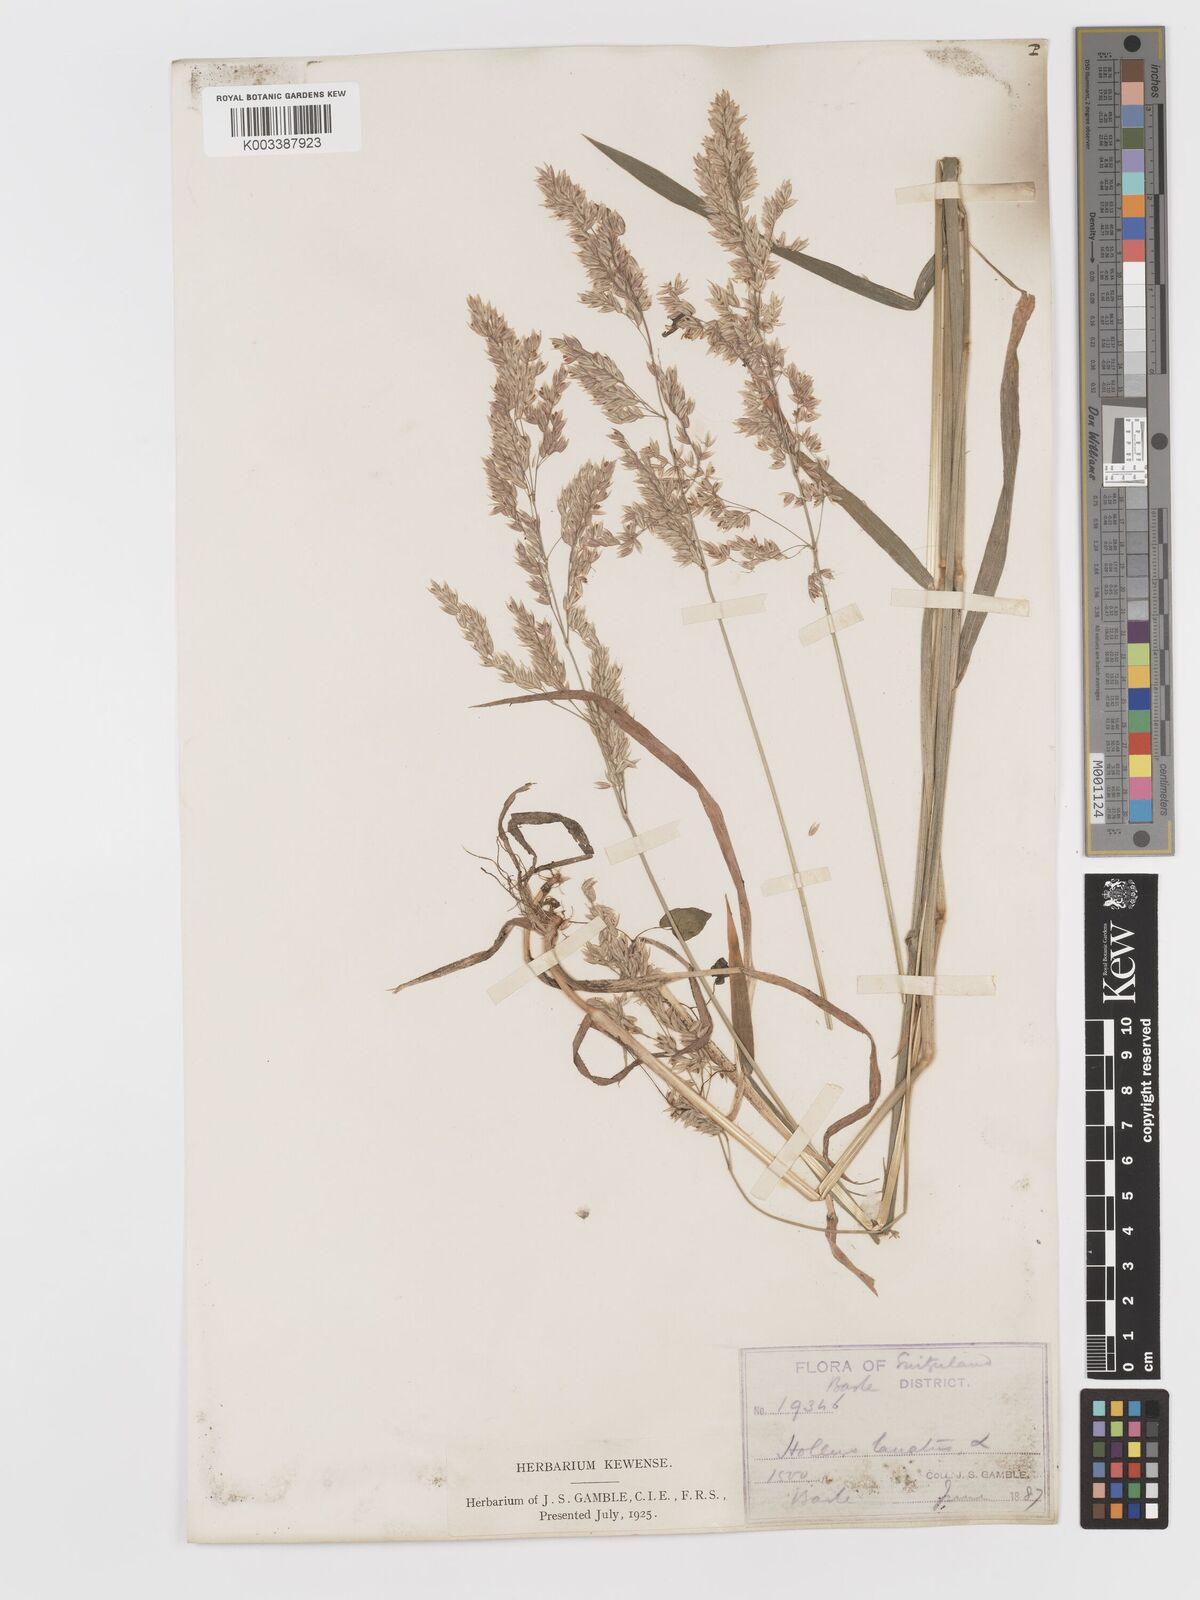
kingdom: Plantae
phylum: Tracheophyta
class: Liliopsida
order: Poales
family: Poaceae
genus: Holcus
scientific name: Holcus lanatus
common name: Yorkshire-fog
